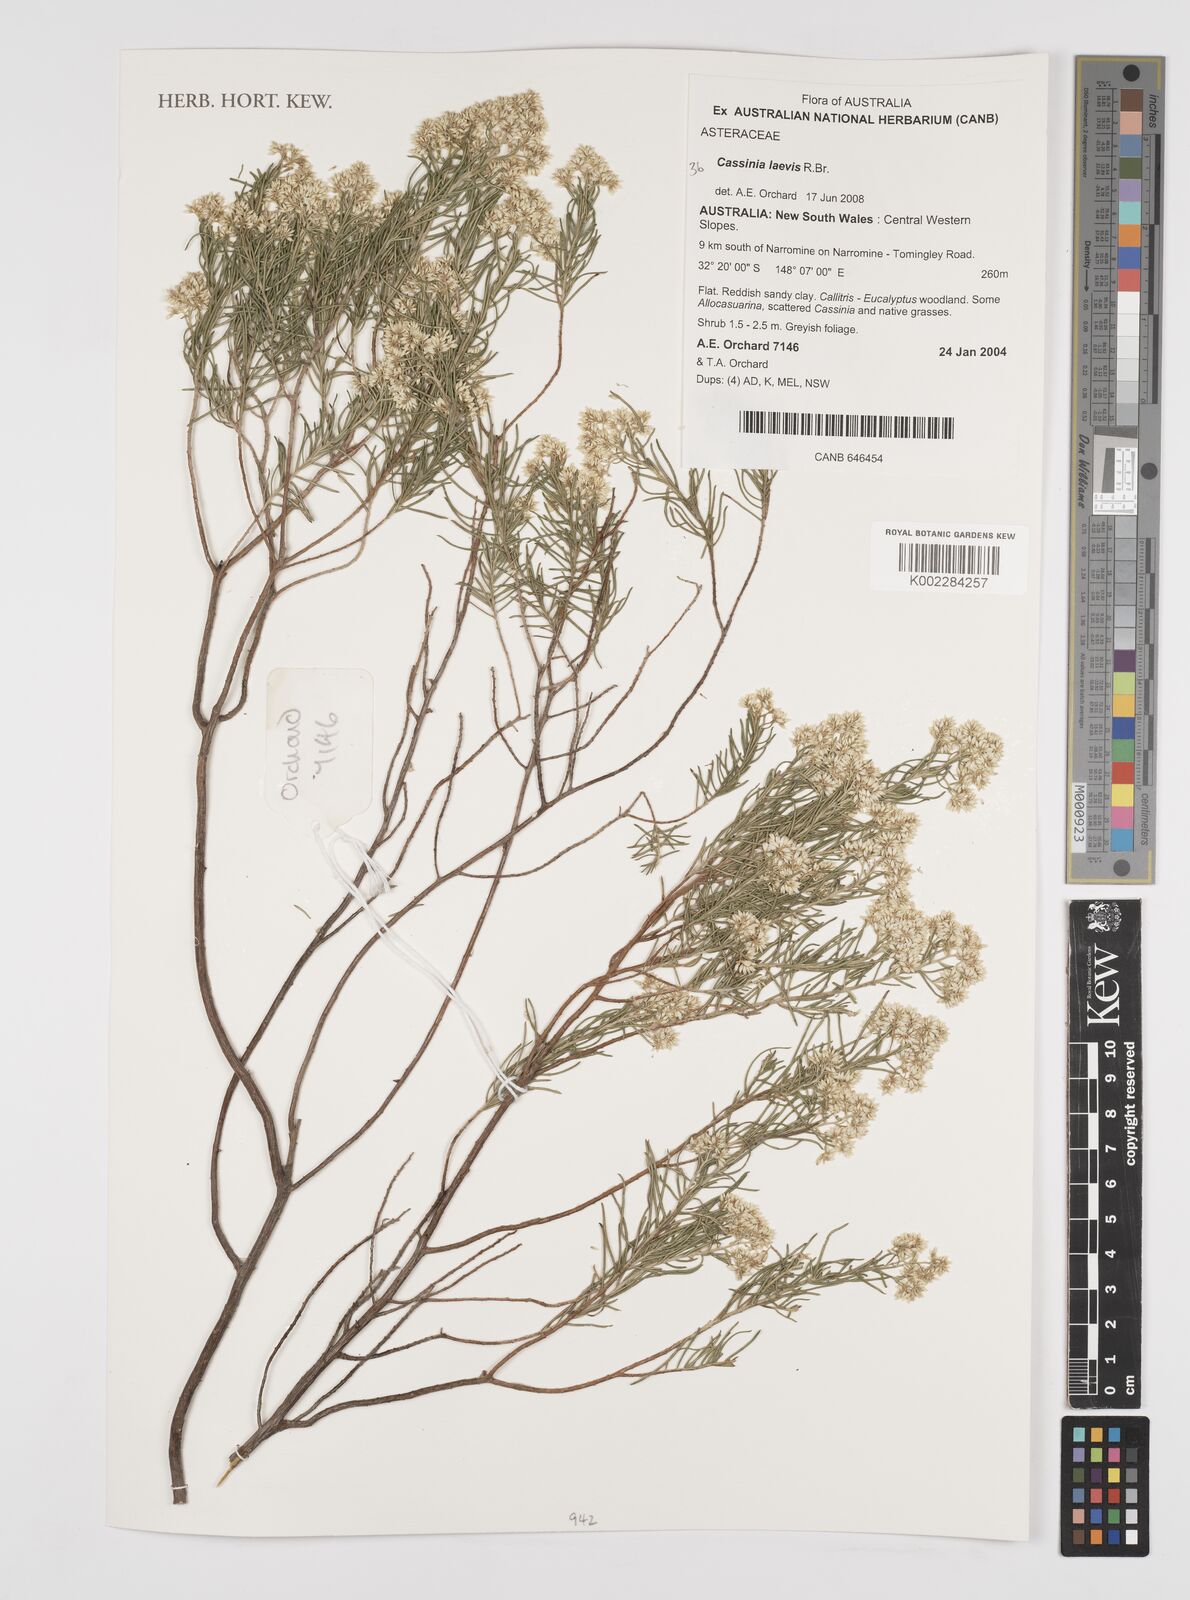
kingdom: Plantae
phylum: Tracheophyta
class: Magnoliopsida
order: Asterales
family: Asteraceae
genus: Cassinia
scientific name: Cassinia laevis
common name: Coughbush
